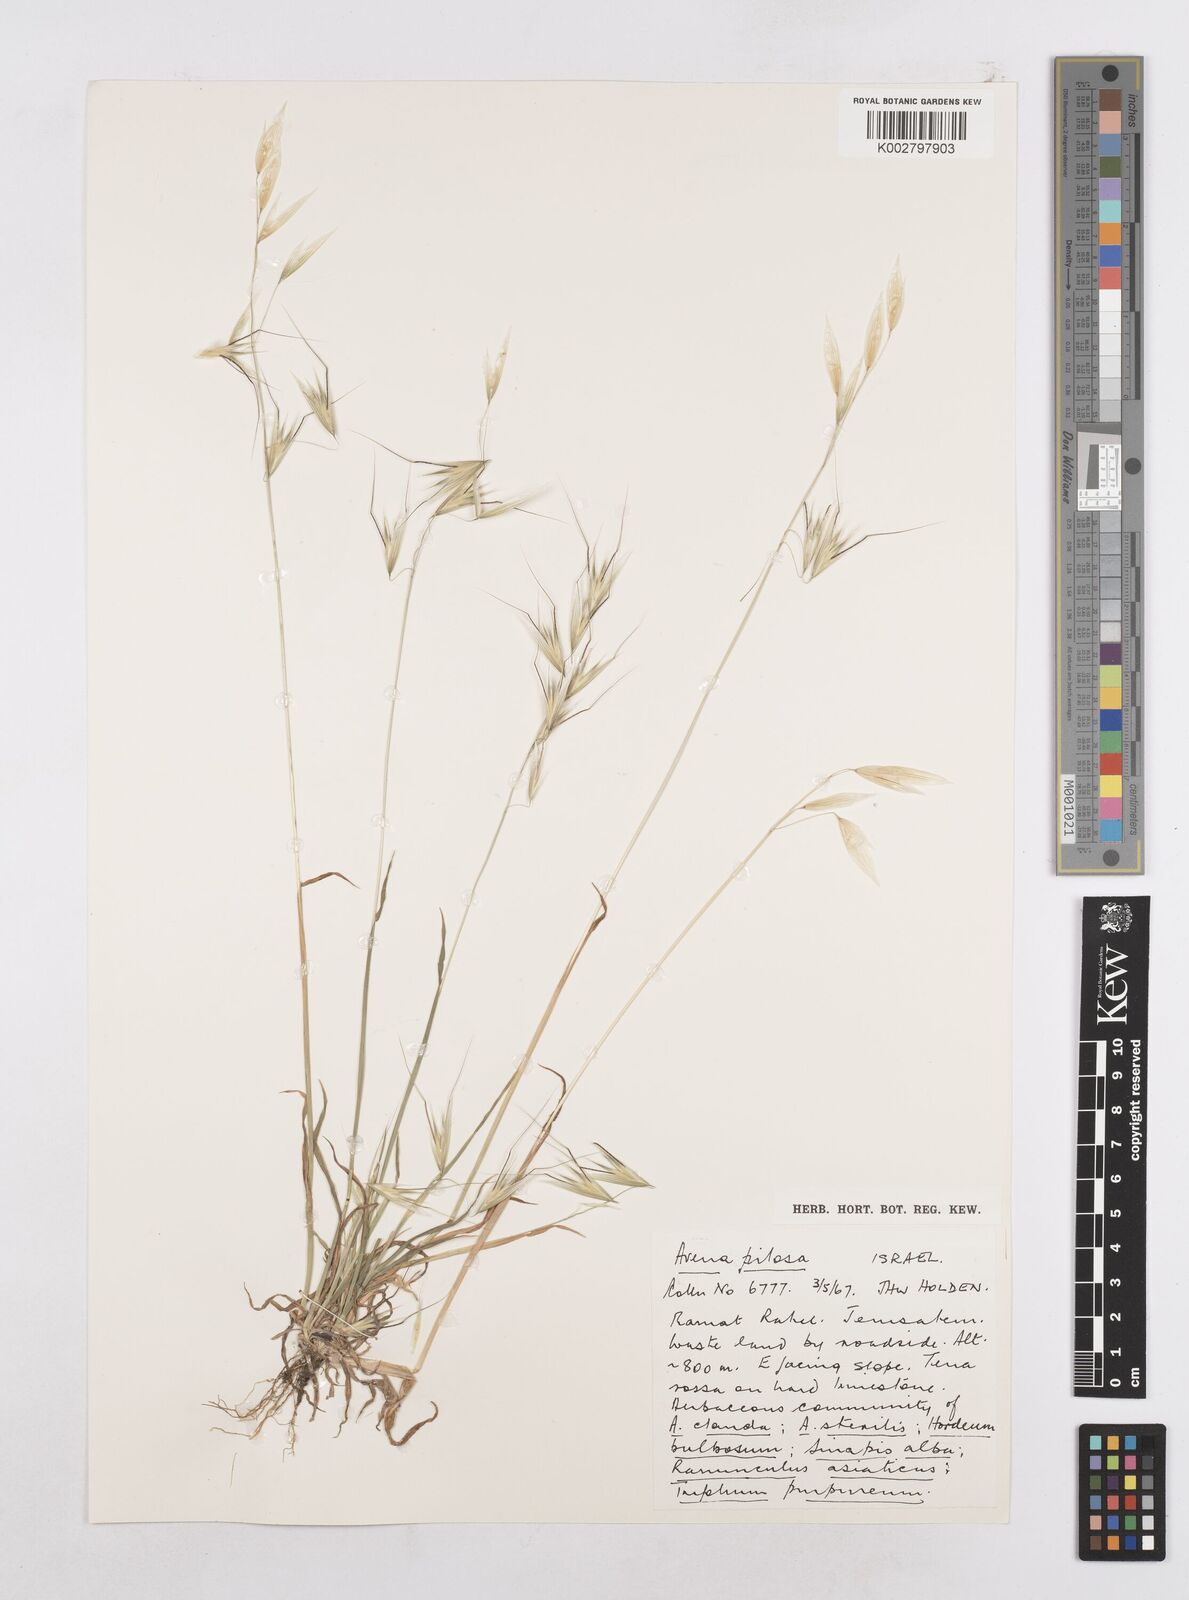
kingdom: Plantae
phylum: Tracheophyta
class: Liliopsida
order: Poales
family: Poaceae
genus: Avena
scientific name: Avena
